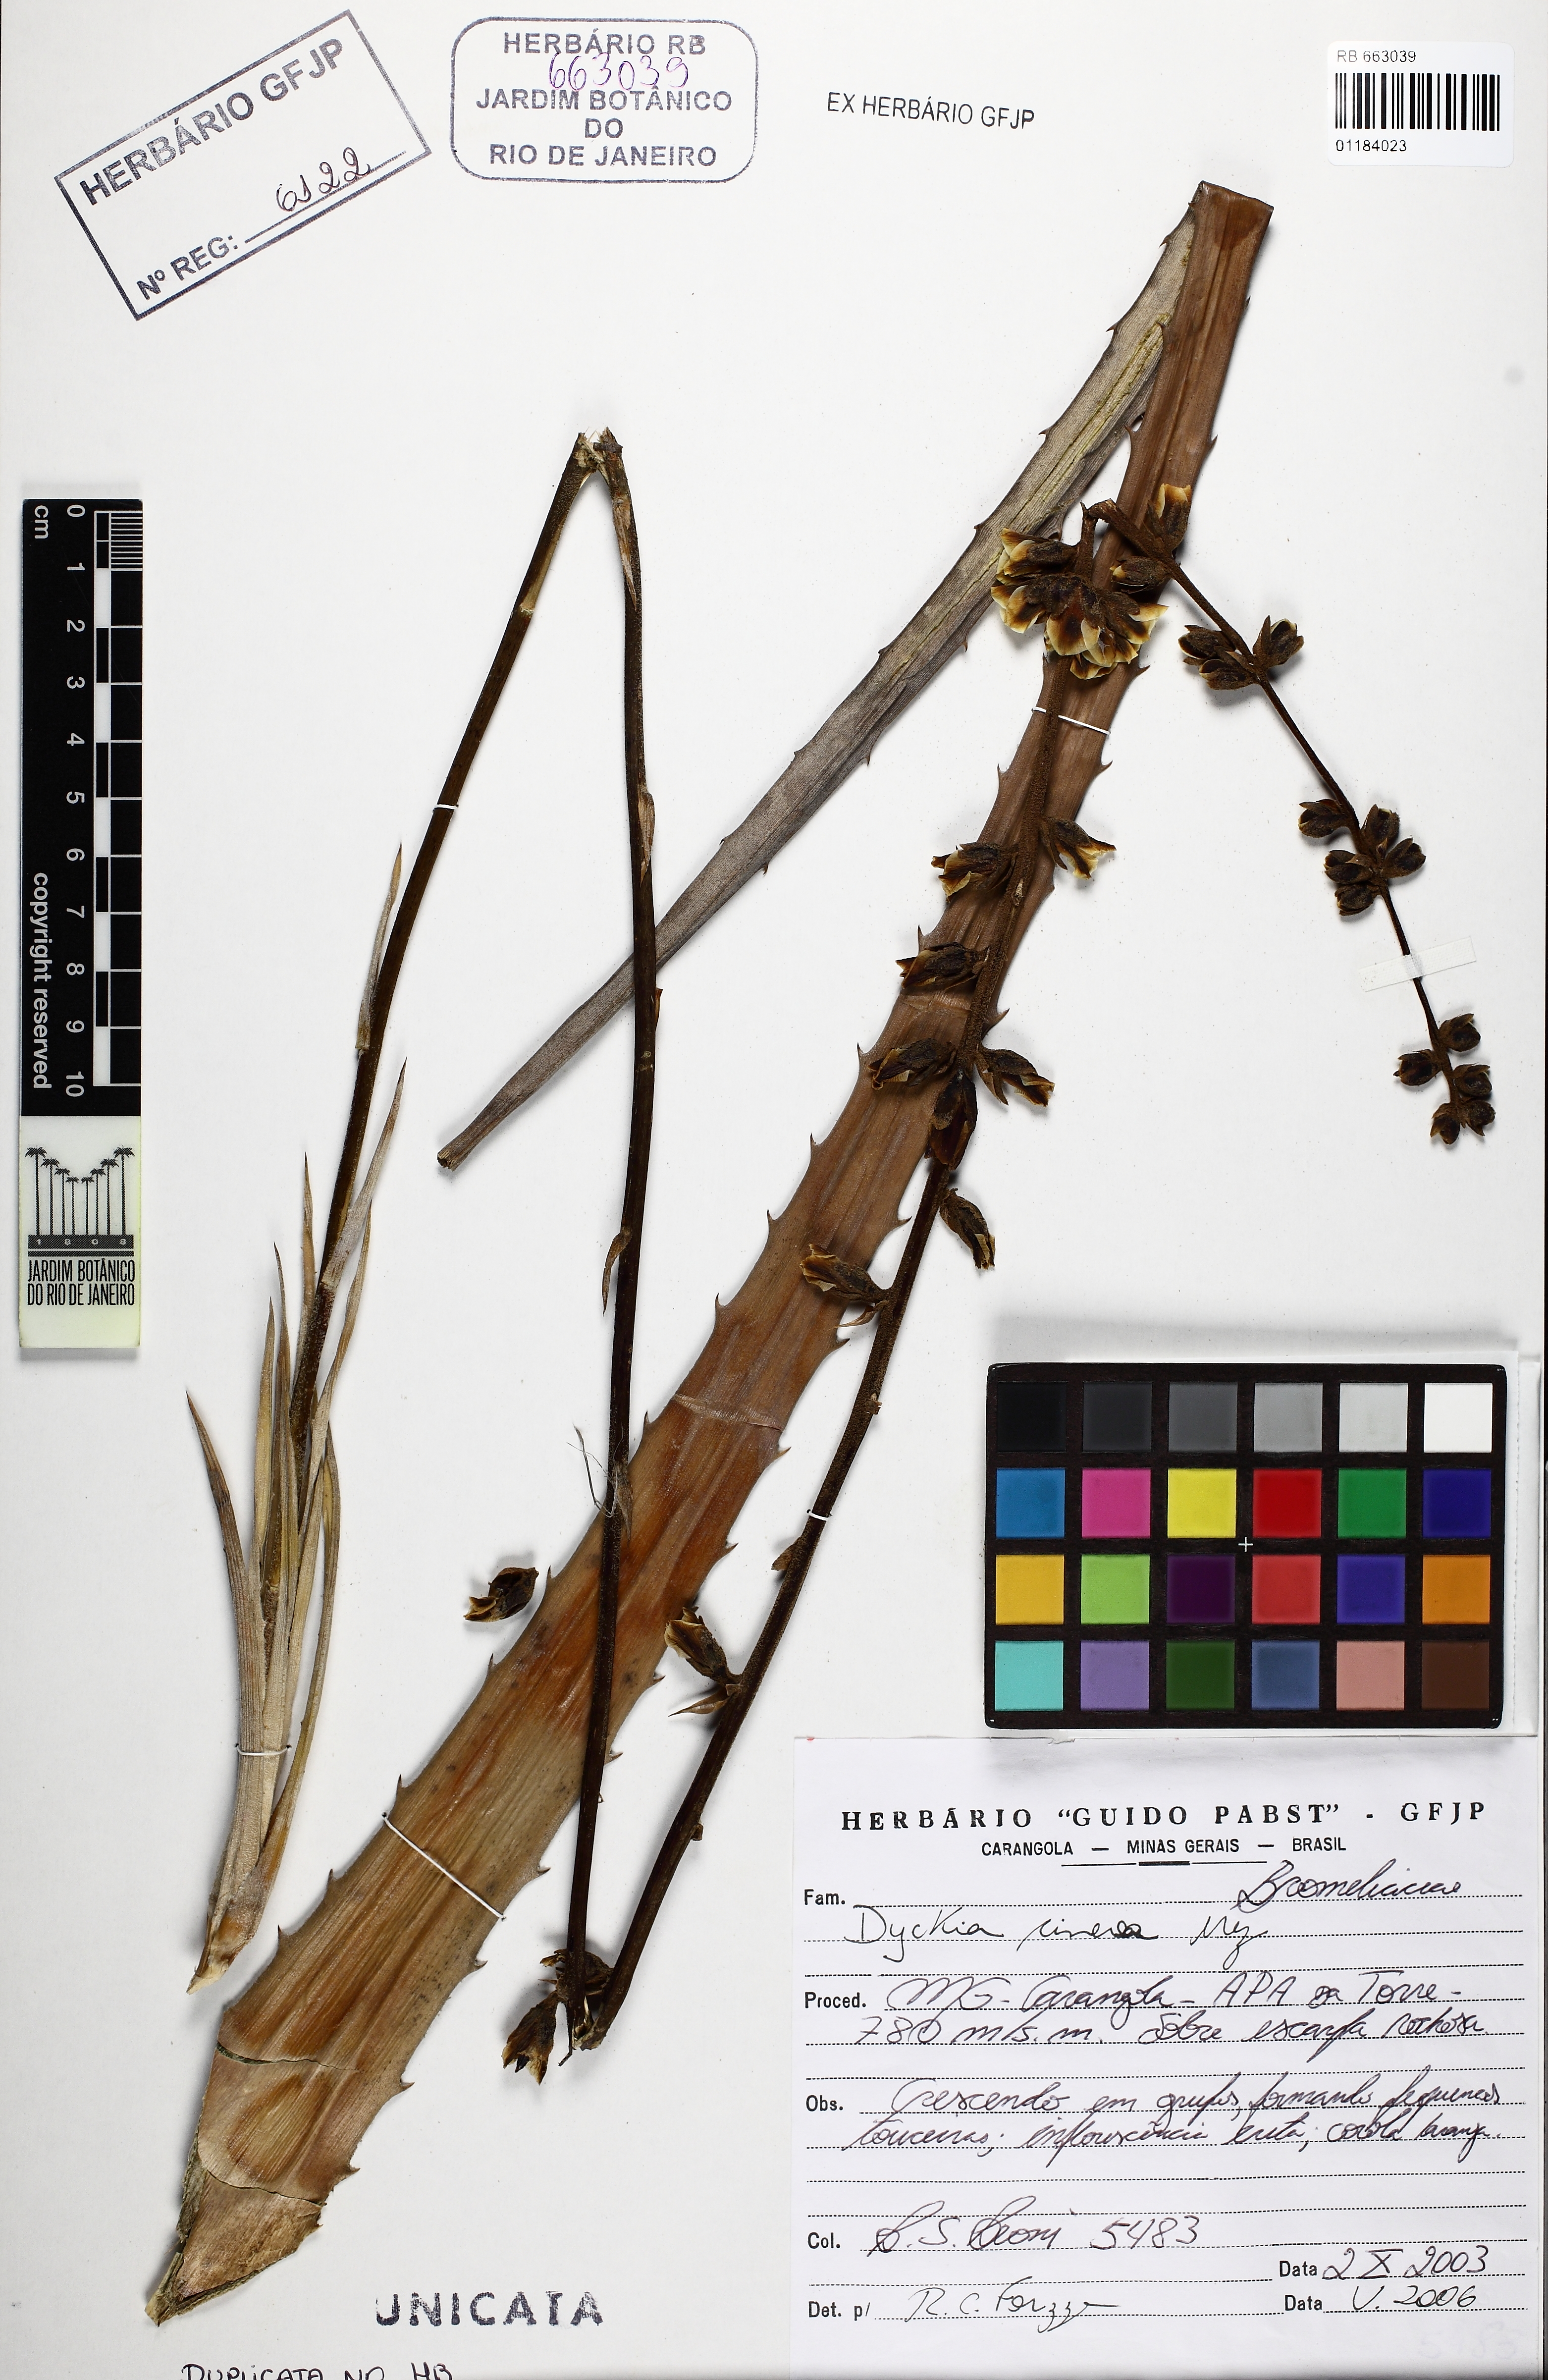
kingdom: Plantae
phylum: Tracheophyta
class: Liliopsida
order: Poales
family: Bromeliaceae
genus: Dyckia
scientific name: Dyckia cinerea
